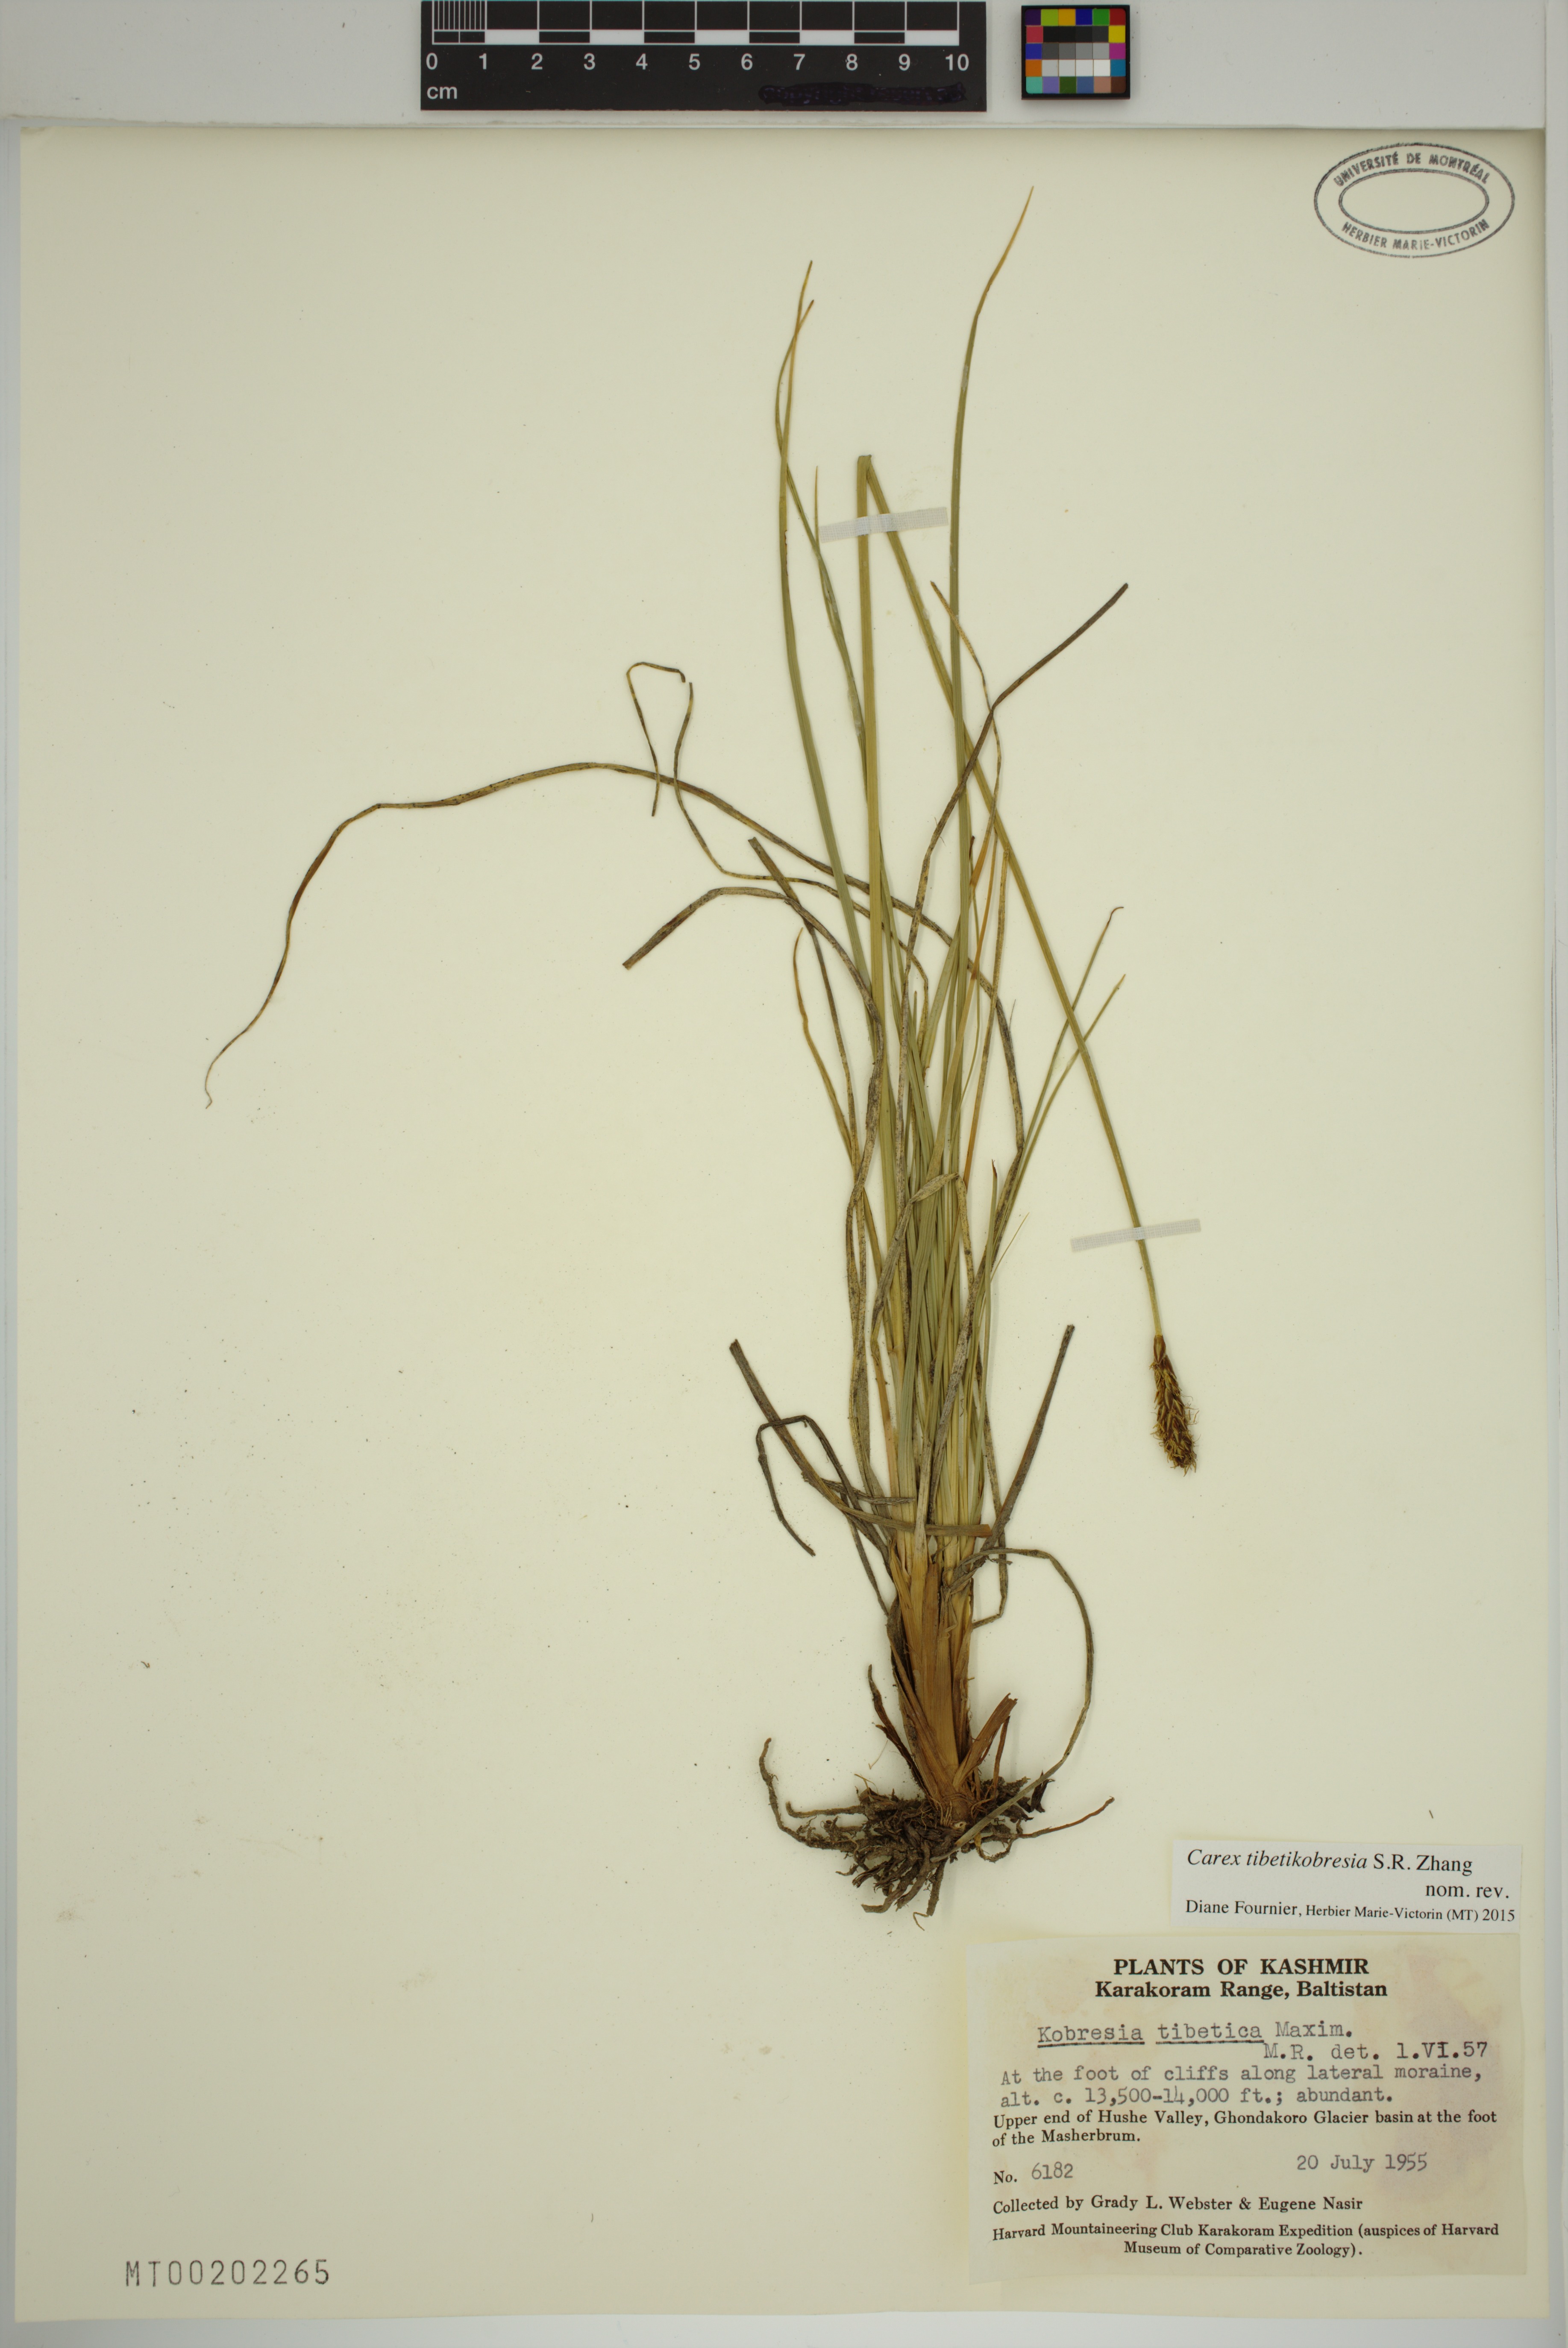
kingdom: Plantae
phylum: Tracheophyta
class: Liliopsida
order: Poales
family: Cyperaceae
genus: Carex
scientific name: Carex tibetikobresia
